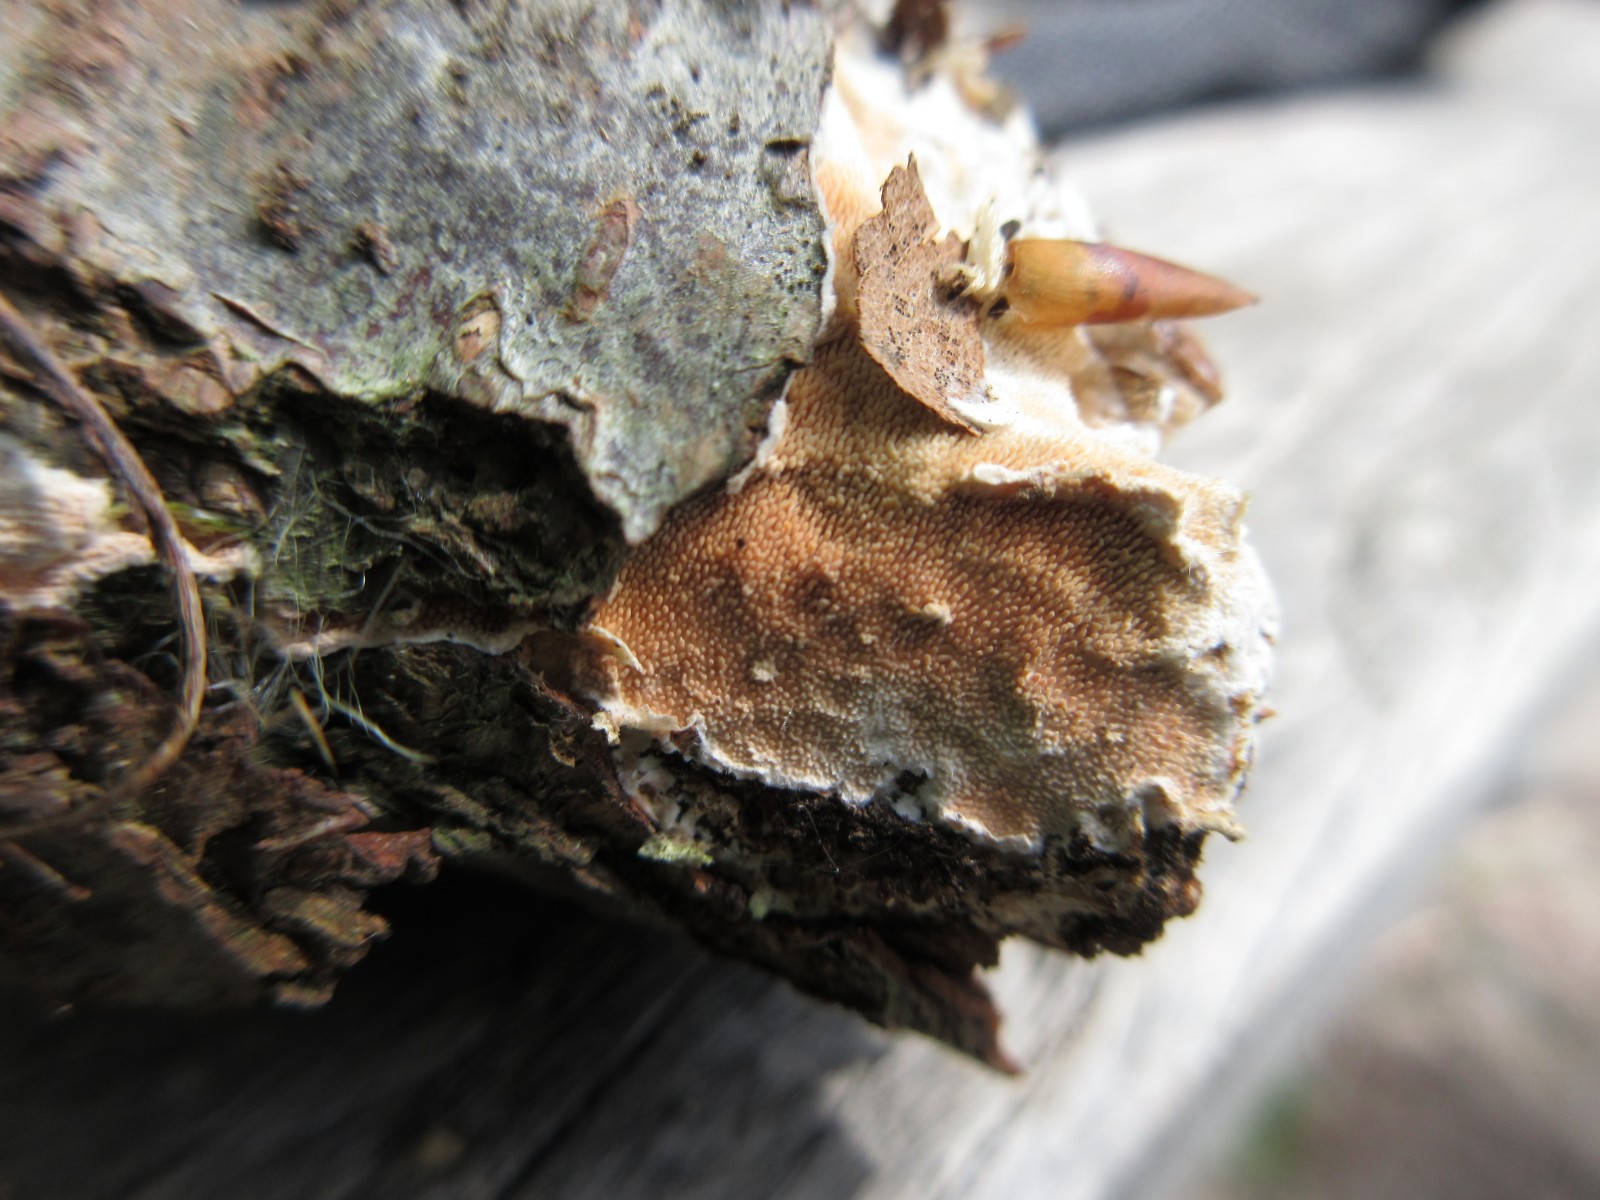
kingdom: Fungi
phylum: Basidiomycota
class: Agaricomycetes
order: Polyporales
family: Steccherinaceae
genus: Steccherinum
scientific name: Steccherinum ochraceum
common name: almindelig skønpig
